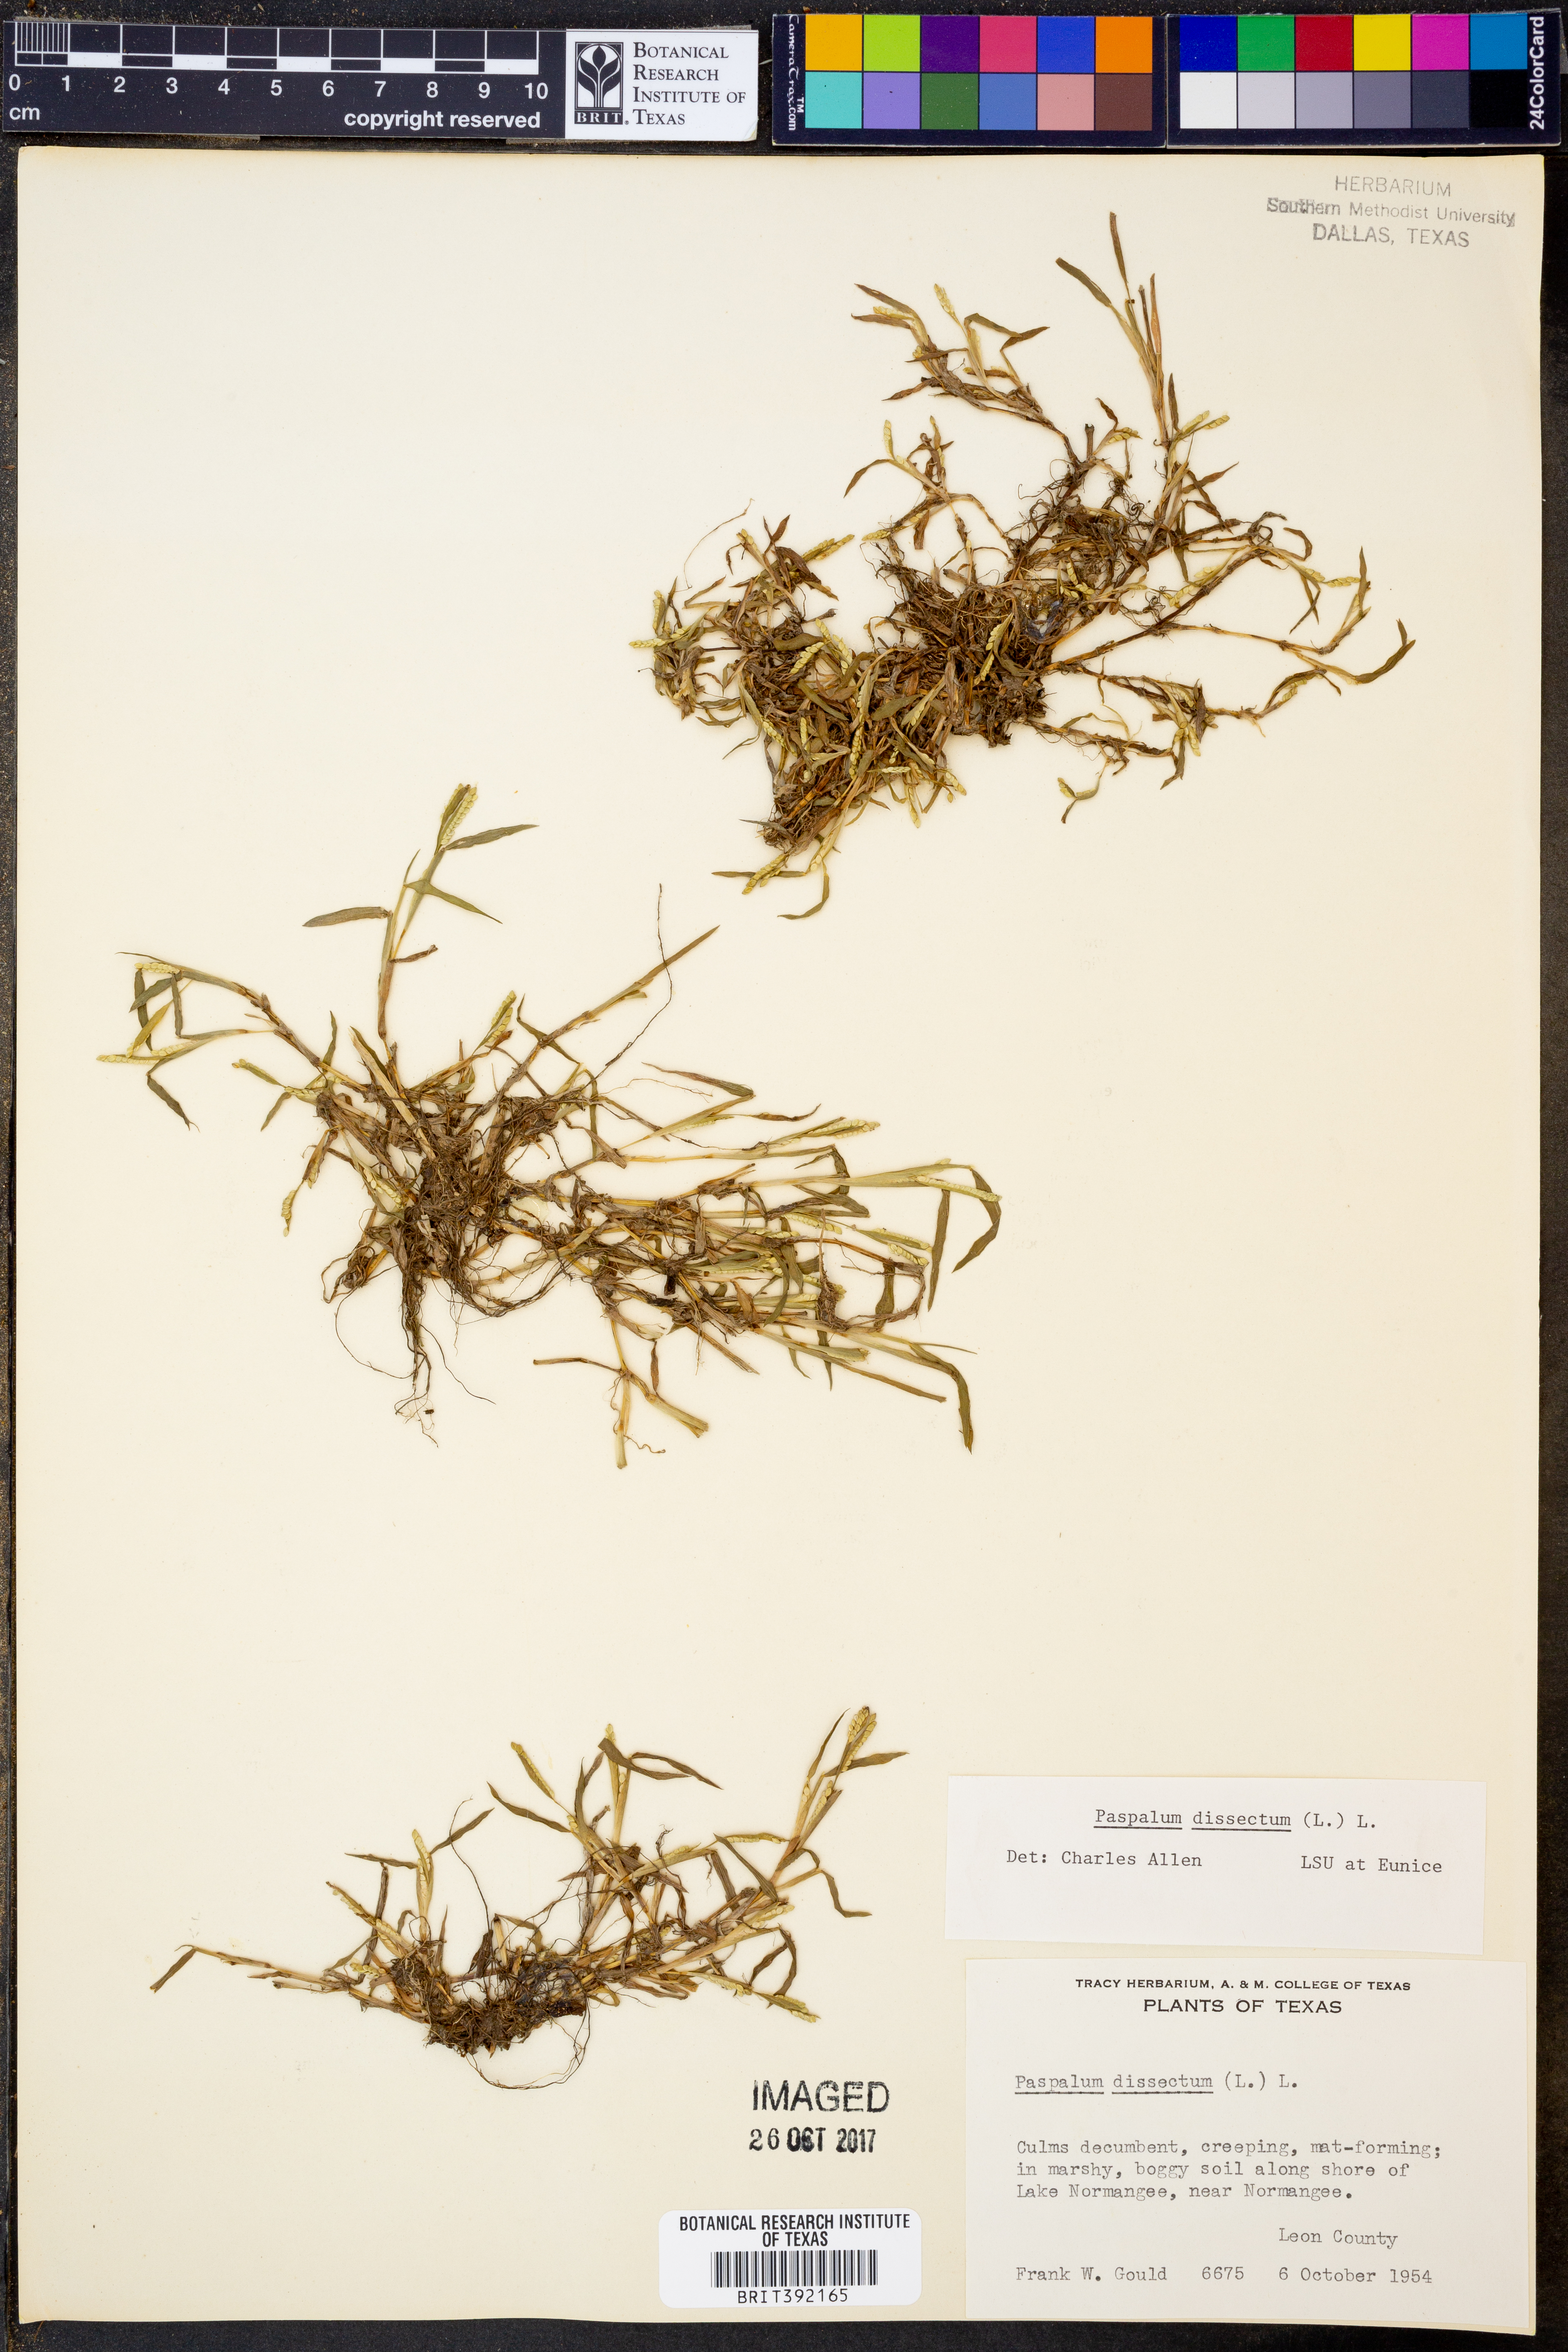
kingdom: Plantae
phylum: Tracheophyta
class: Liliopsida
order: Poales
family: Poaceae
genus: Paspalum
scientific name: Paspalum dissectum
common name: Bead grass
